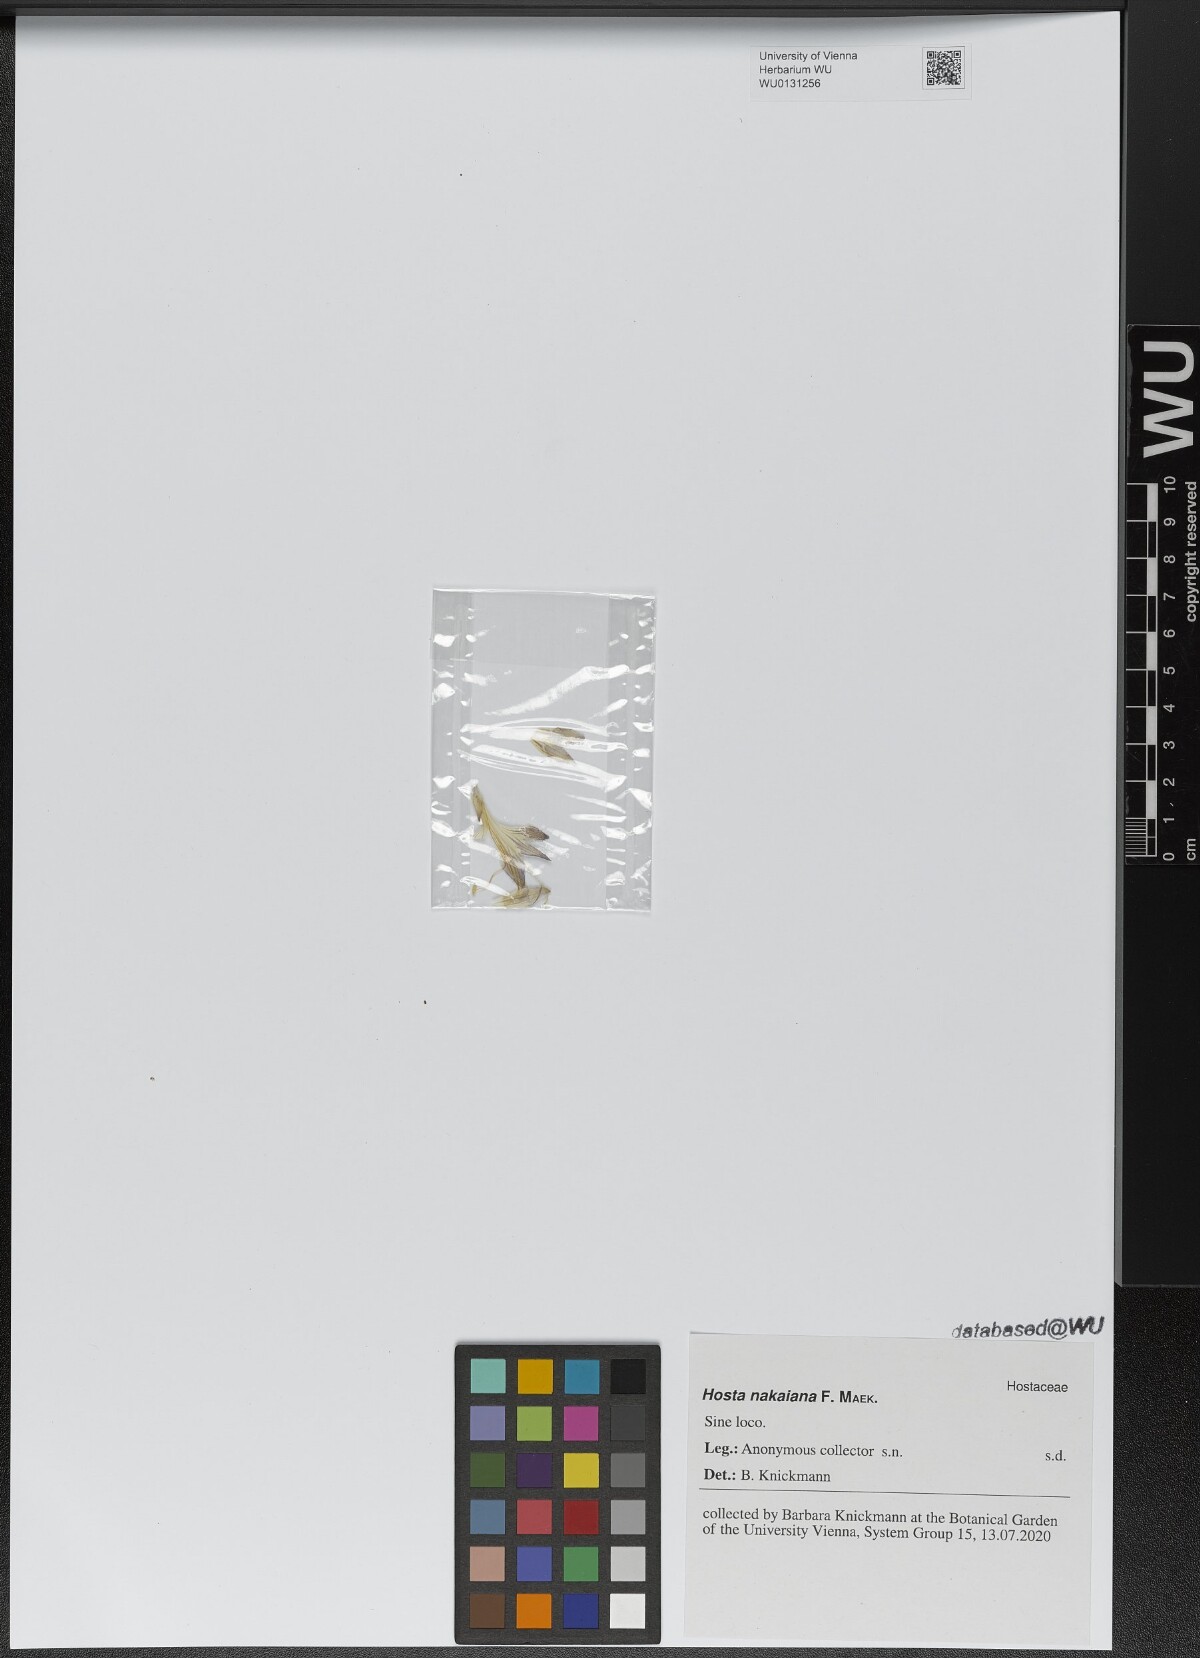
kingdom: Plantae
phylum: Tracheophyta
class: Liliopsida
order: Asparagales
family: Asparagaceae
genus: Hosta
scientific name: Hosta capitata
